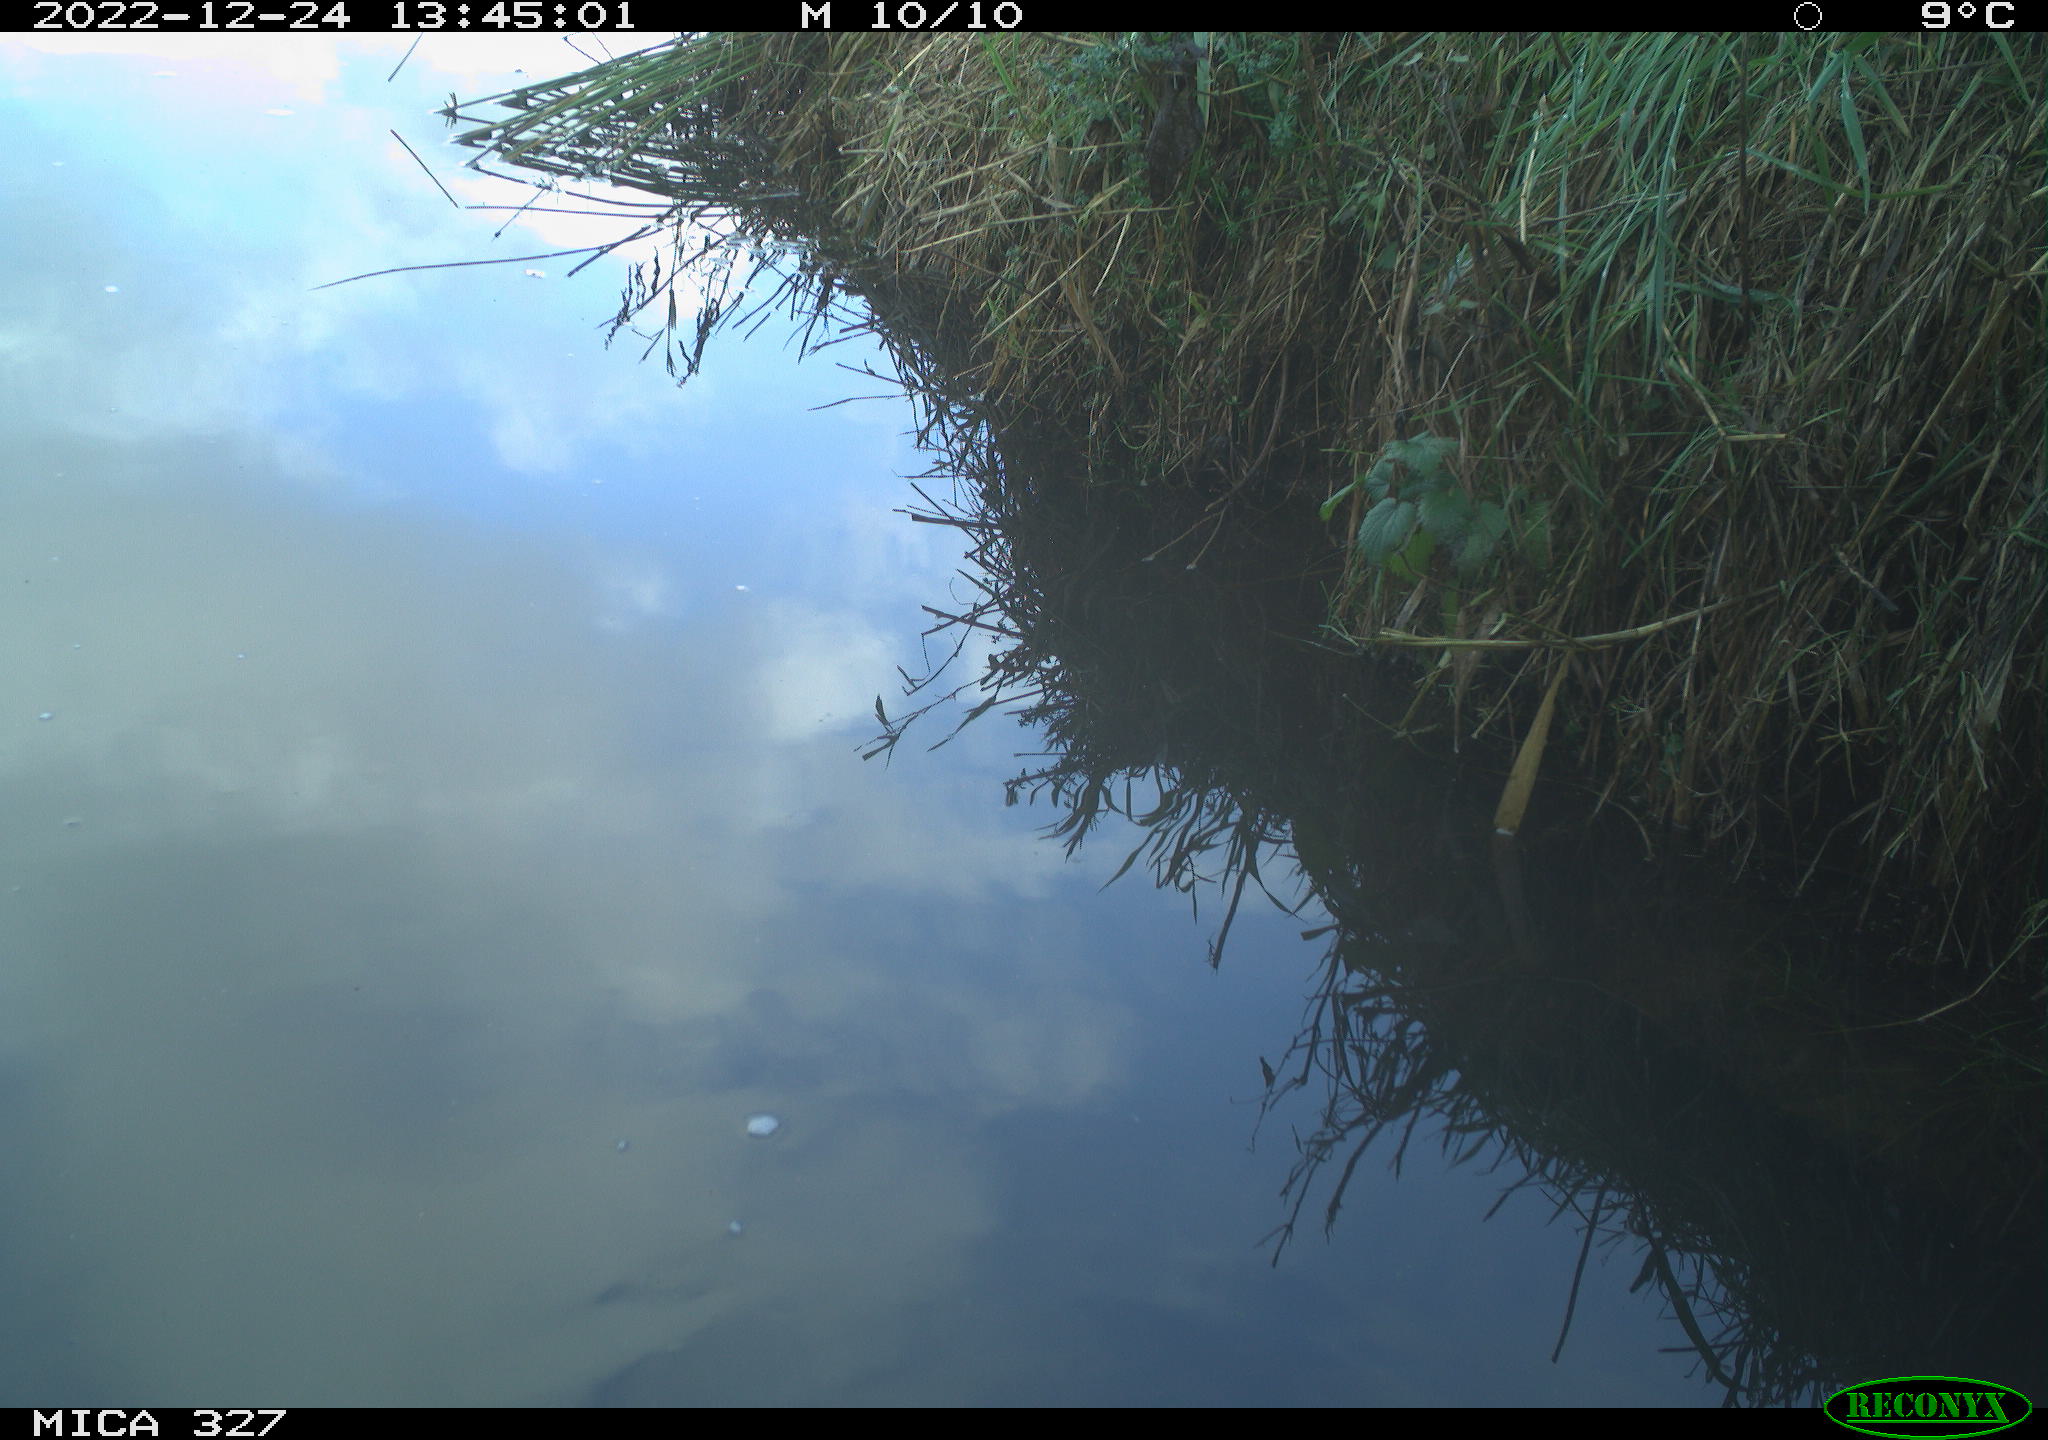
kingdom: Animalia
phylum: Chordata
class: Aves
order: Gruiformes
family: Rallidae
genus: Gallinula
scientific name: Gallinula chloropus
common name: Common moorhen
